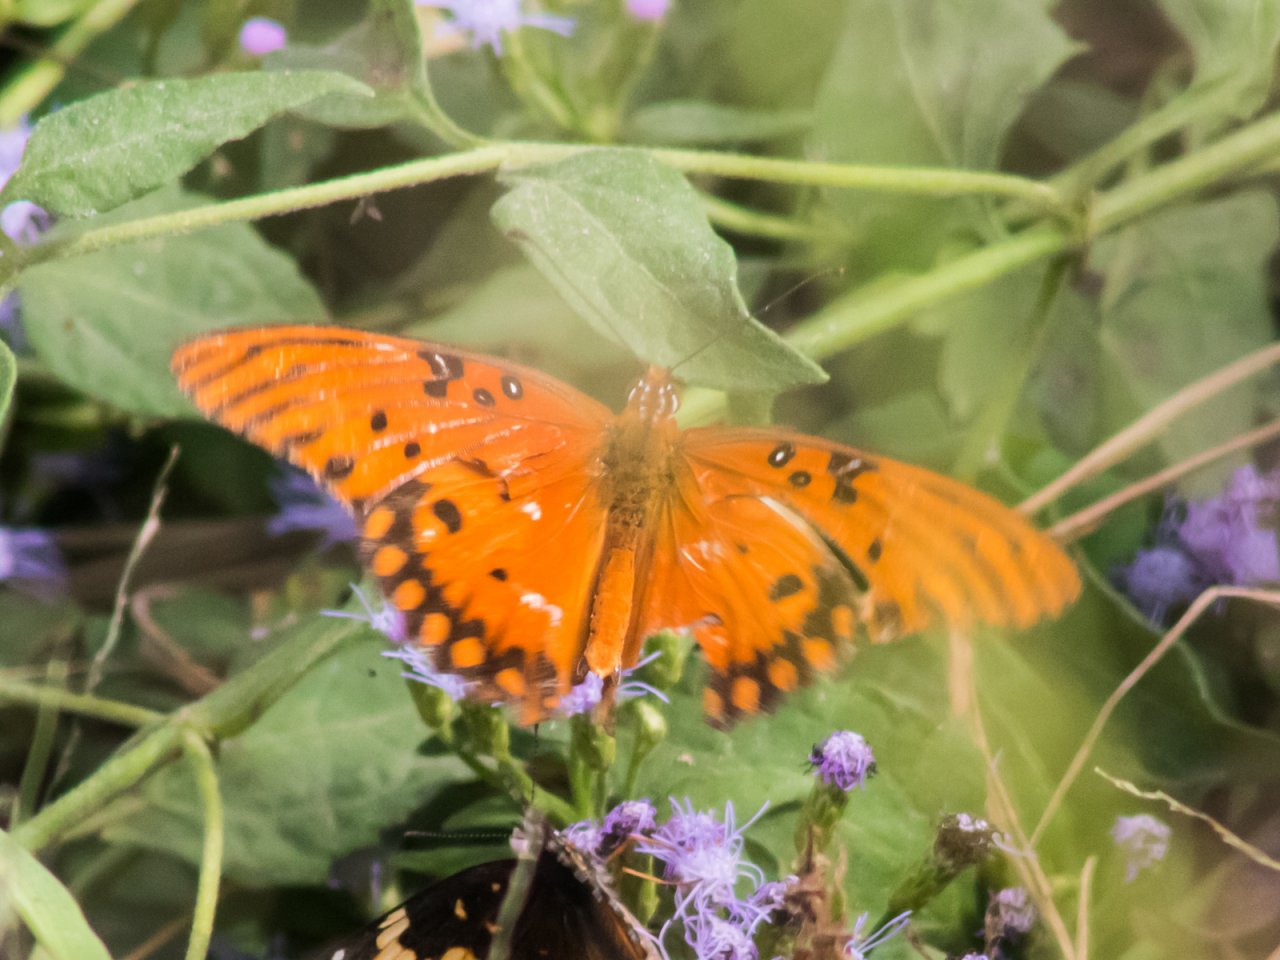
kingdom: Animalia
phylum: Arthropoda
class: Insecta
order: Lepidoptera
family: Nymphalidae
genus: Dione
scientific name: Dione vanillae
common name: Gulf Fritillary
